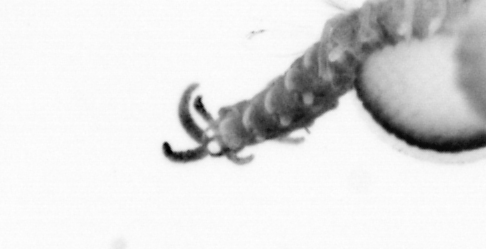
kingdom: Animalia
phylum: Annelida
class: Polychaeta
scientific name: Polychaeta
